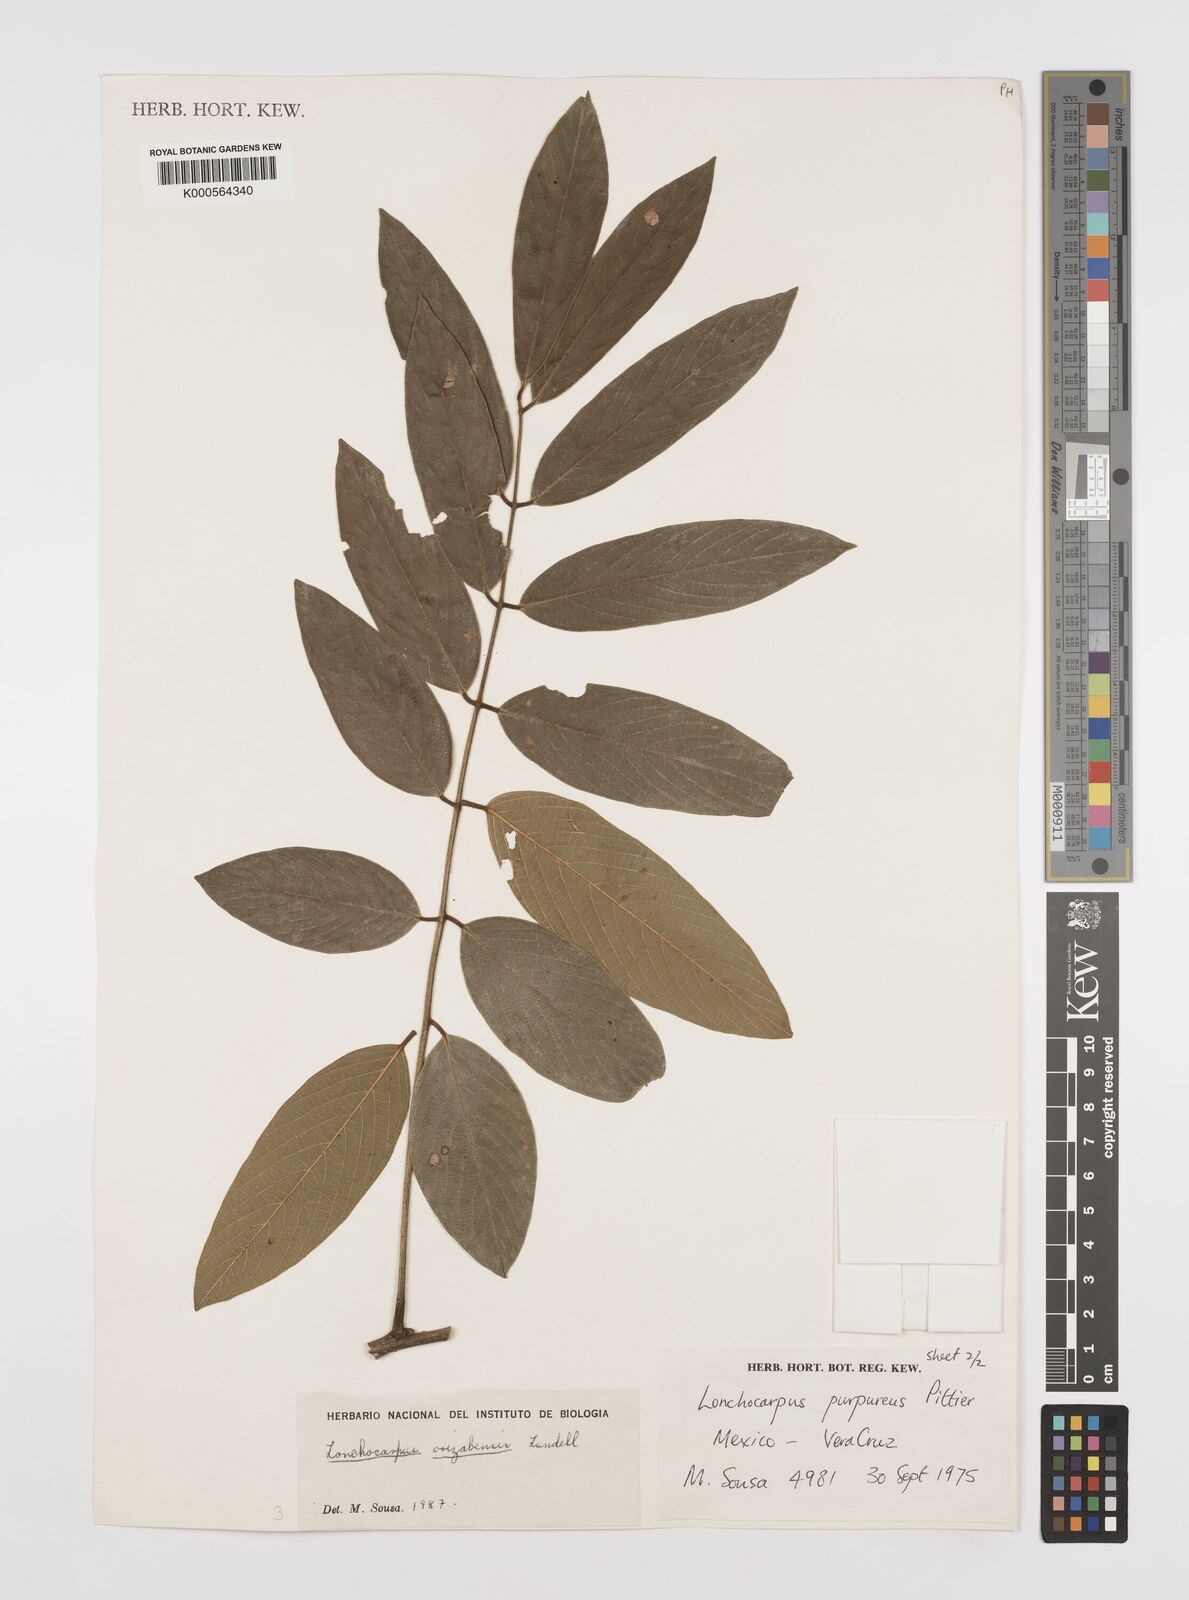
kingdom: Plantae
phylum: Tracheophyta
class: Magnoliopsida
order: Fabales
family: Fabaceae
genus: Lonchocarpus
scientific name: Lonchocarpus orizabensis
